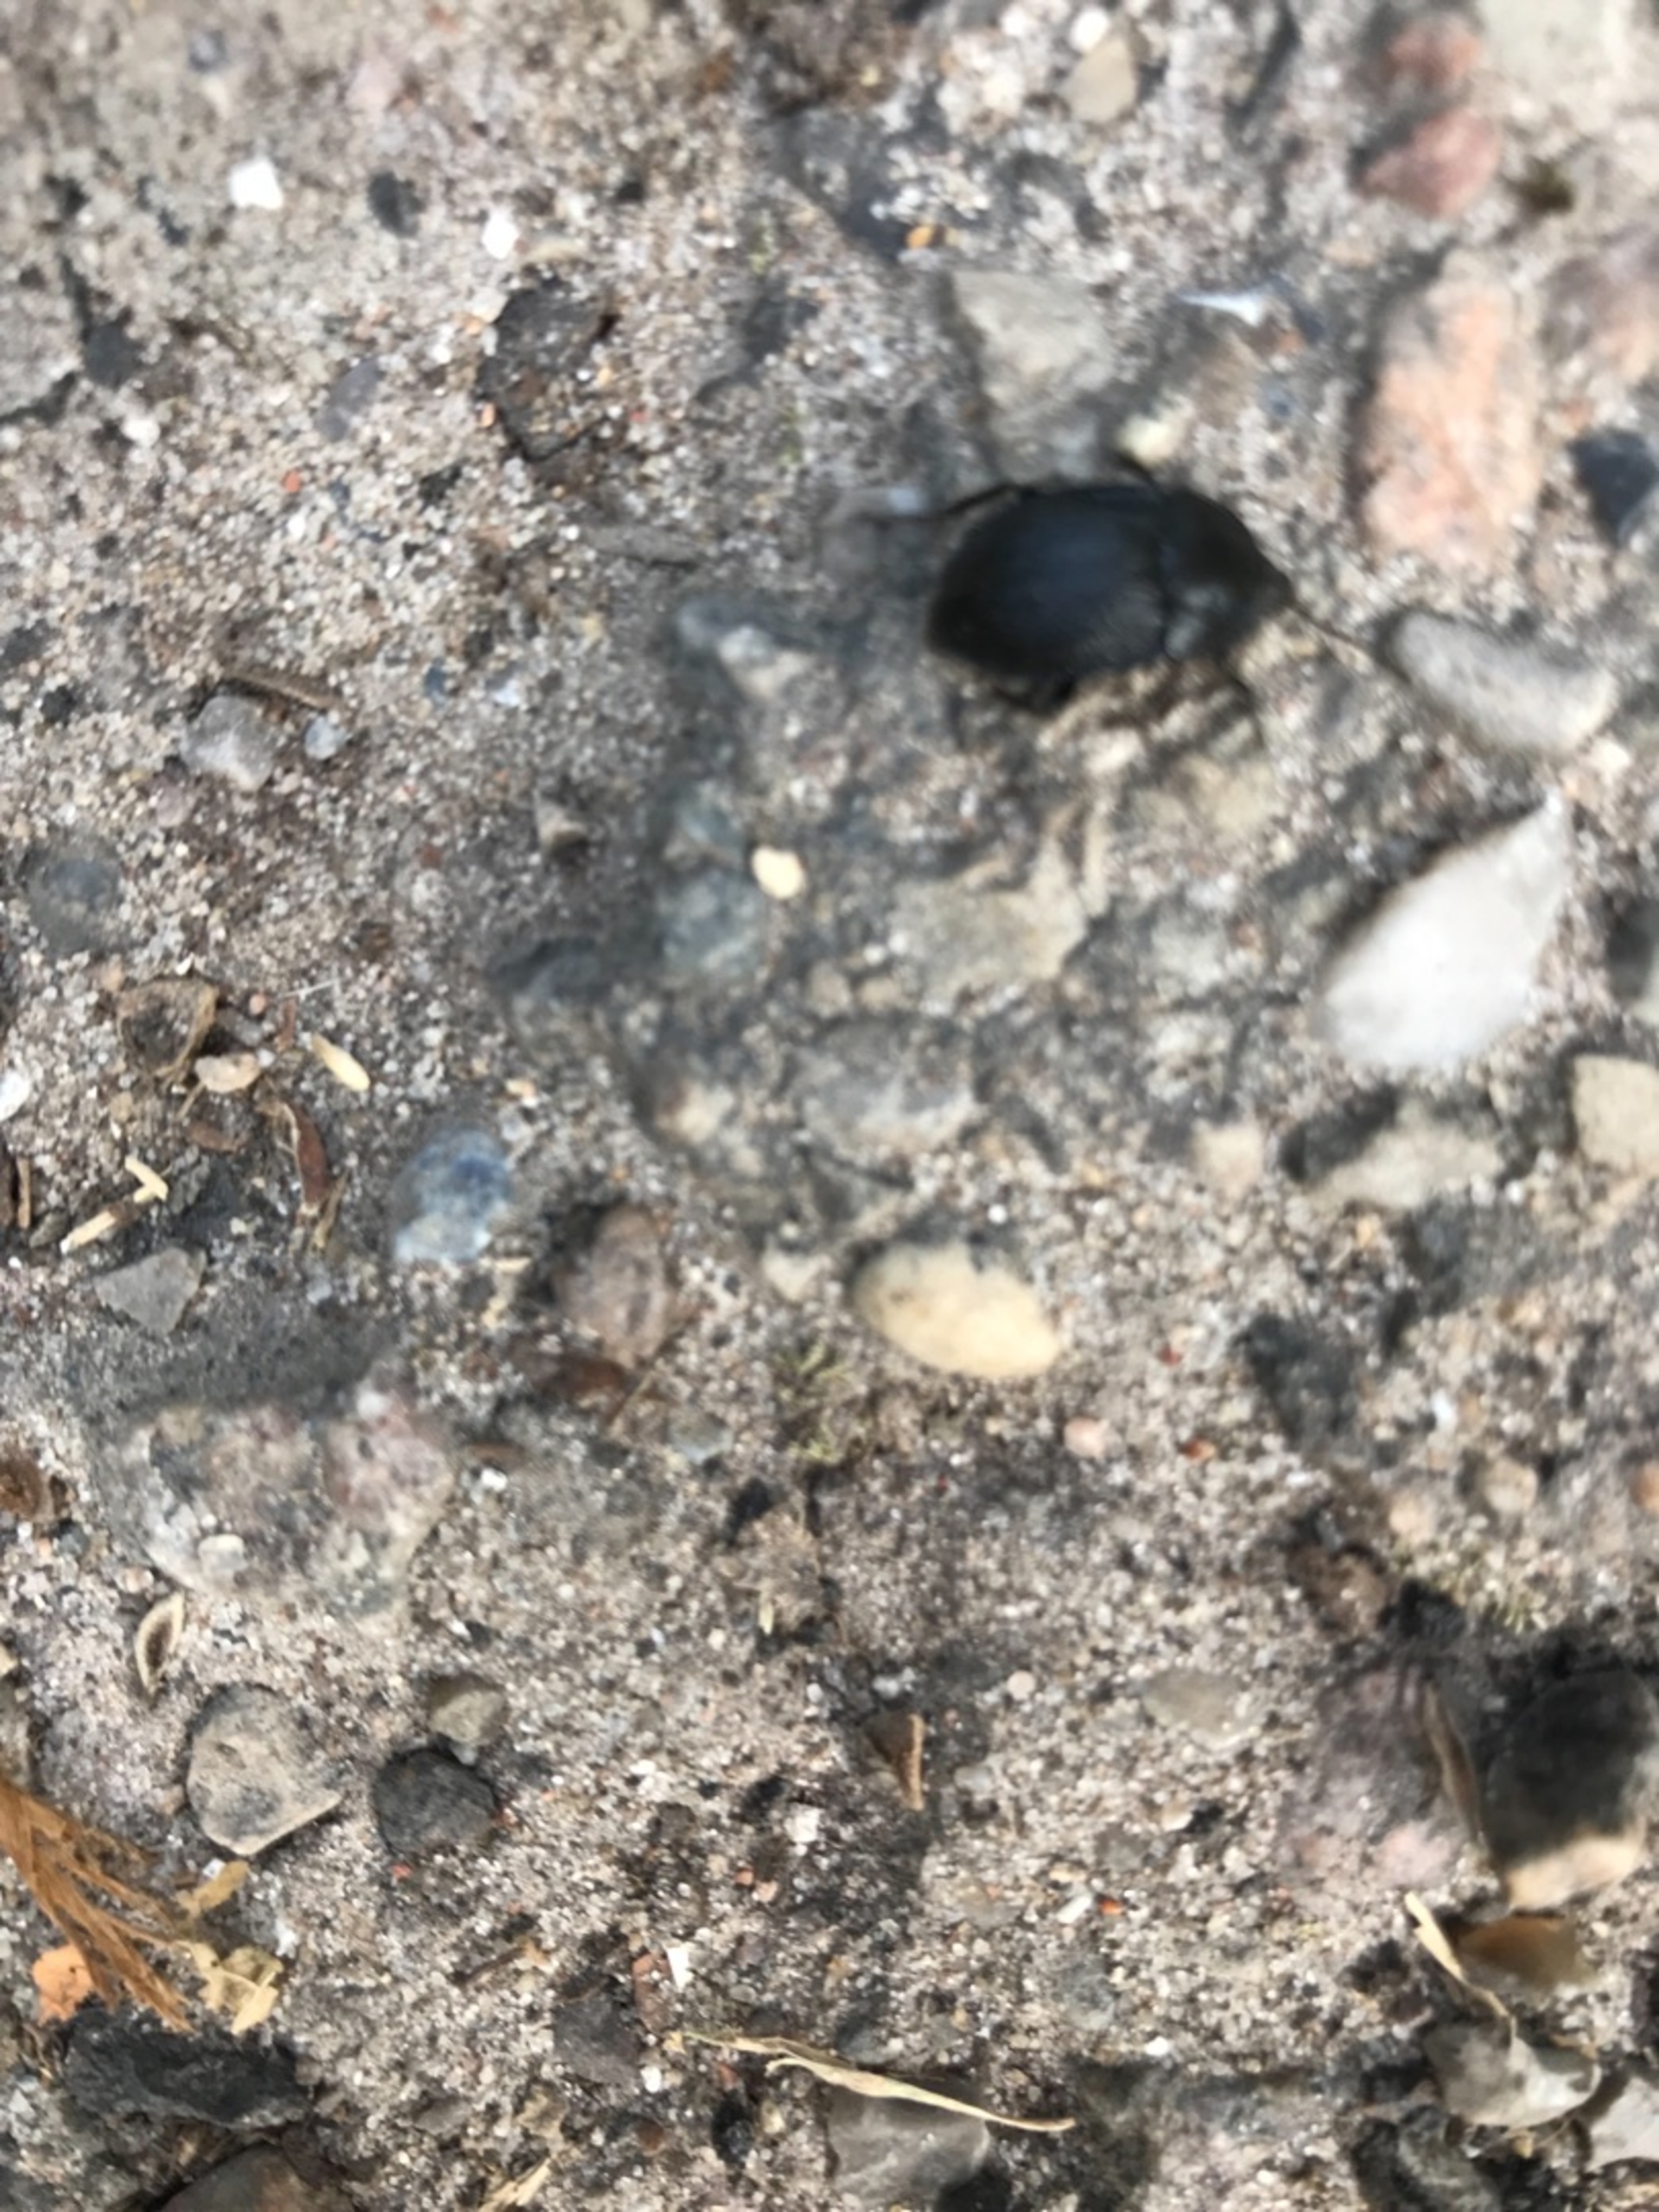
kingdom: Animalia
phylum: Arthropoda
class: Insecta
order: Coleoptera
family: Staphylinidae
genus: Silpha
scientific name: Silpha atrata
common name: Snegleådselbille
